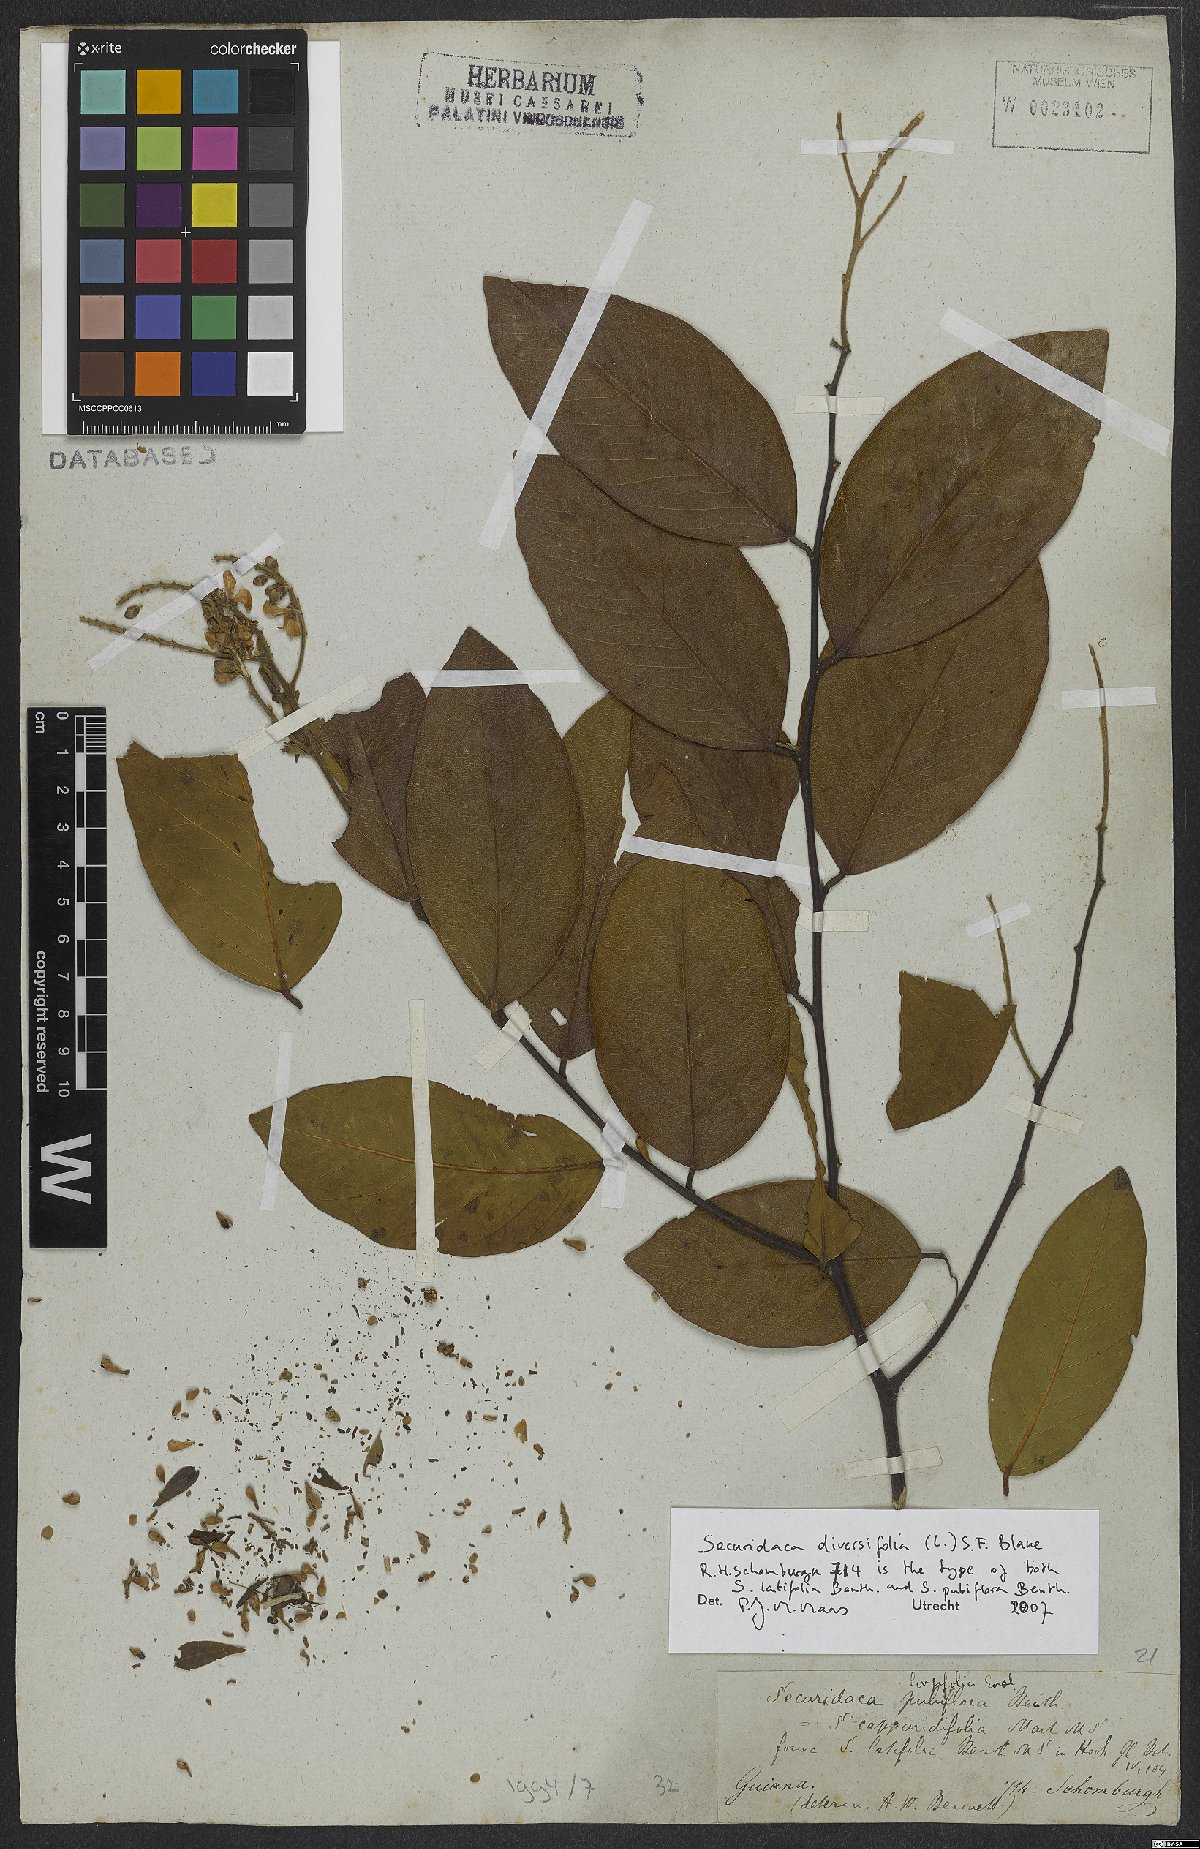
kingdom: Plantae
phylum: Tracheophyta
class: Magnoliopsida
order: Fabales
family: Polygalaceae
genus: Securidaca
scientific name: Securidaca diversifolia
